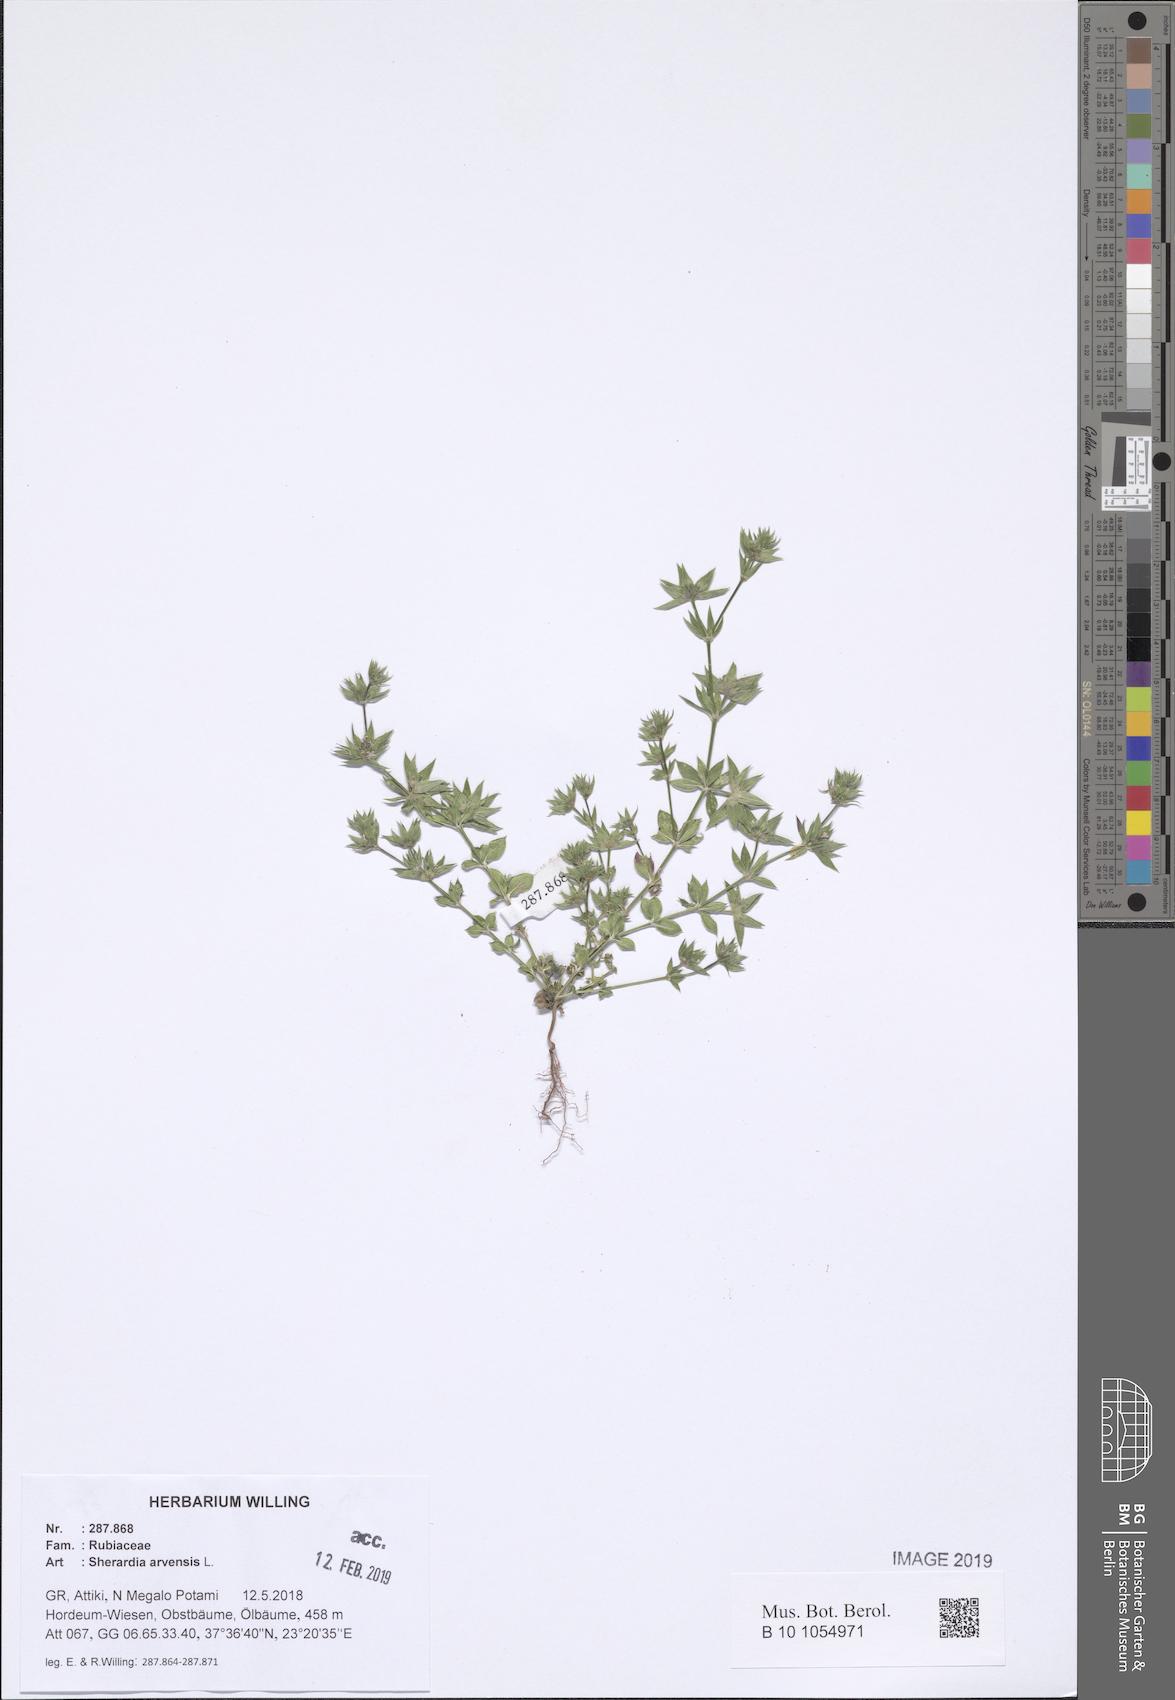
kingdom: Plantae
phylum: Tracheophyta
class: Magnoliopsida
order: Gentianales
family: Rubiaceae
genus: Sherardia
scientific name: Sherardia arvensis
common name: Field madder
